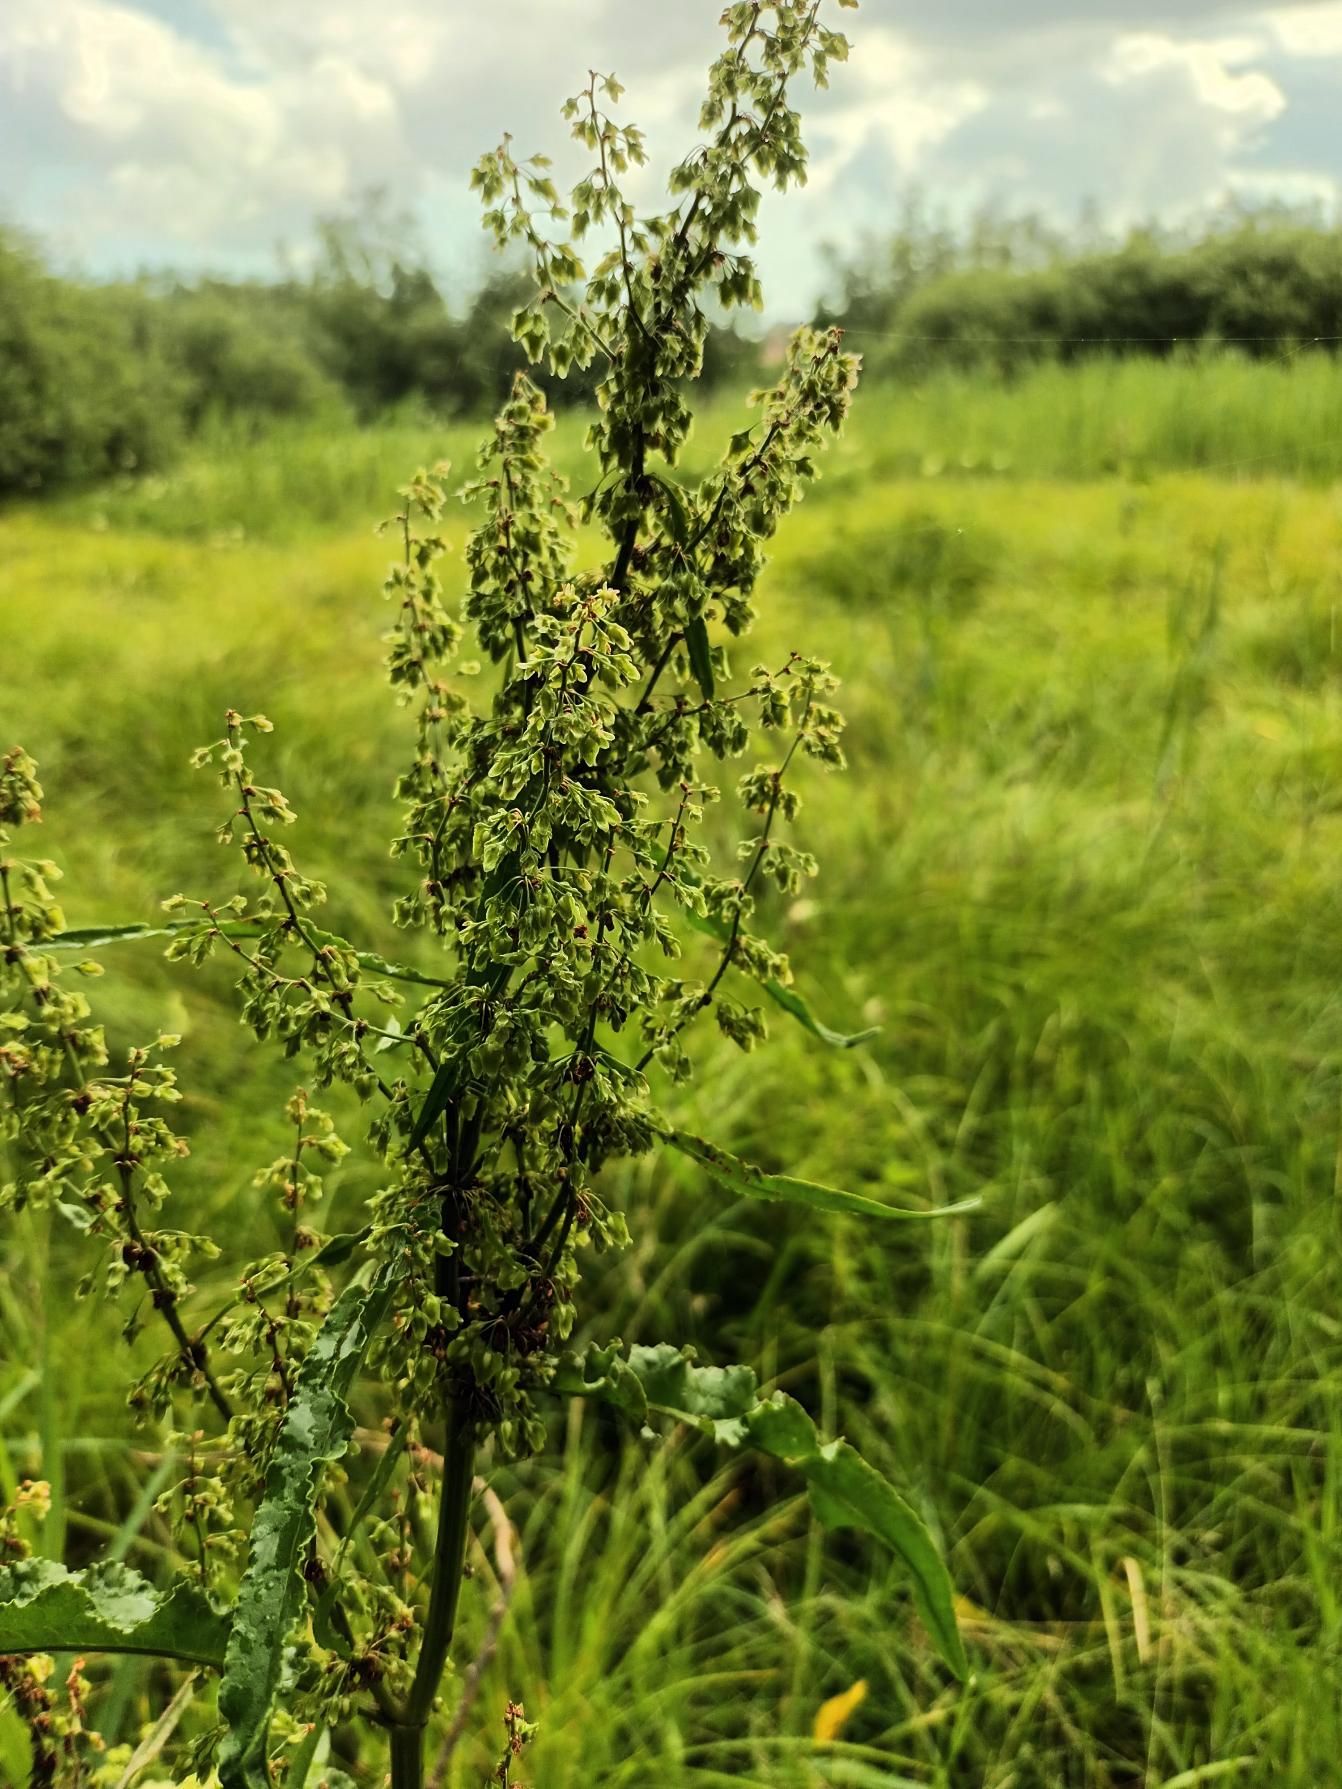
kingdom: Plantae
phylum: Tracheophyta
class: Magnoliopsida
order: Caryophyllales
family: Polygonaceae
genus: Rumex
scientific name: Rumex hydrolapathum
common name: Vand-skræppe
